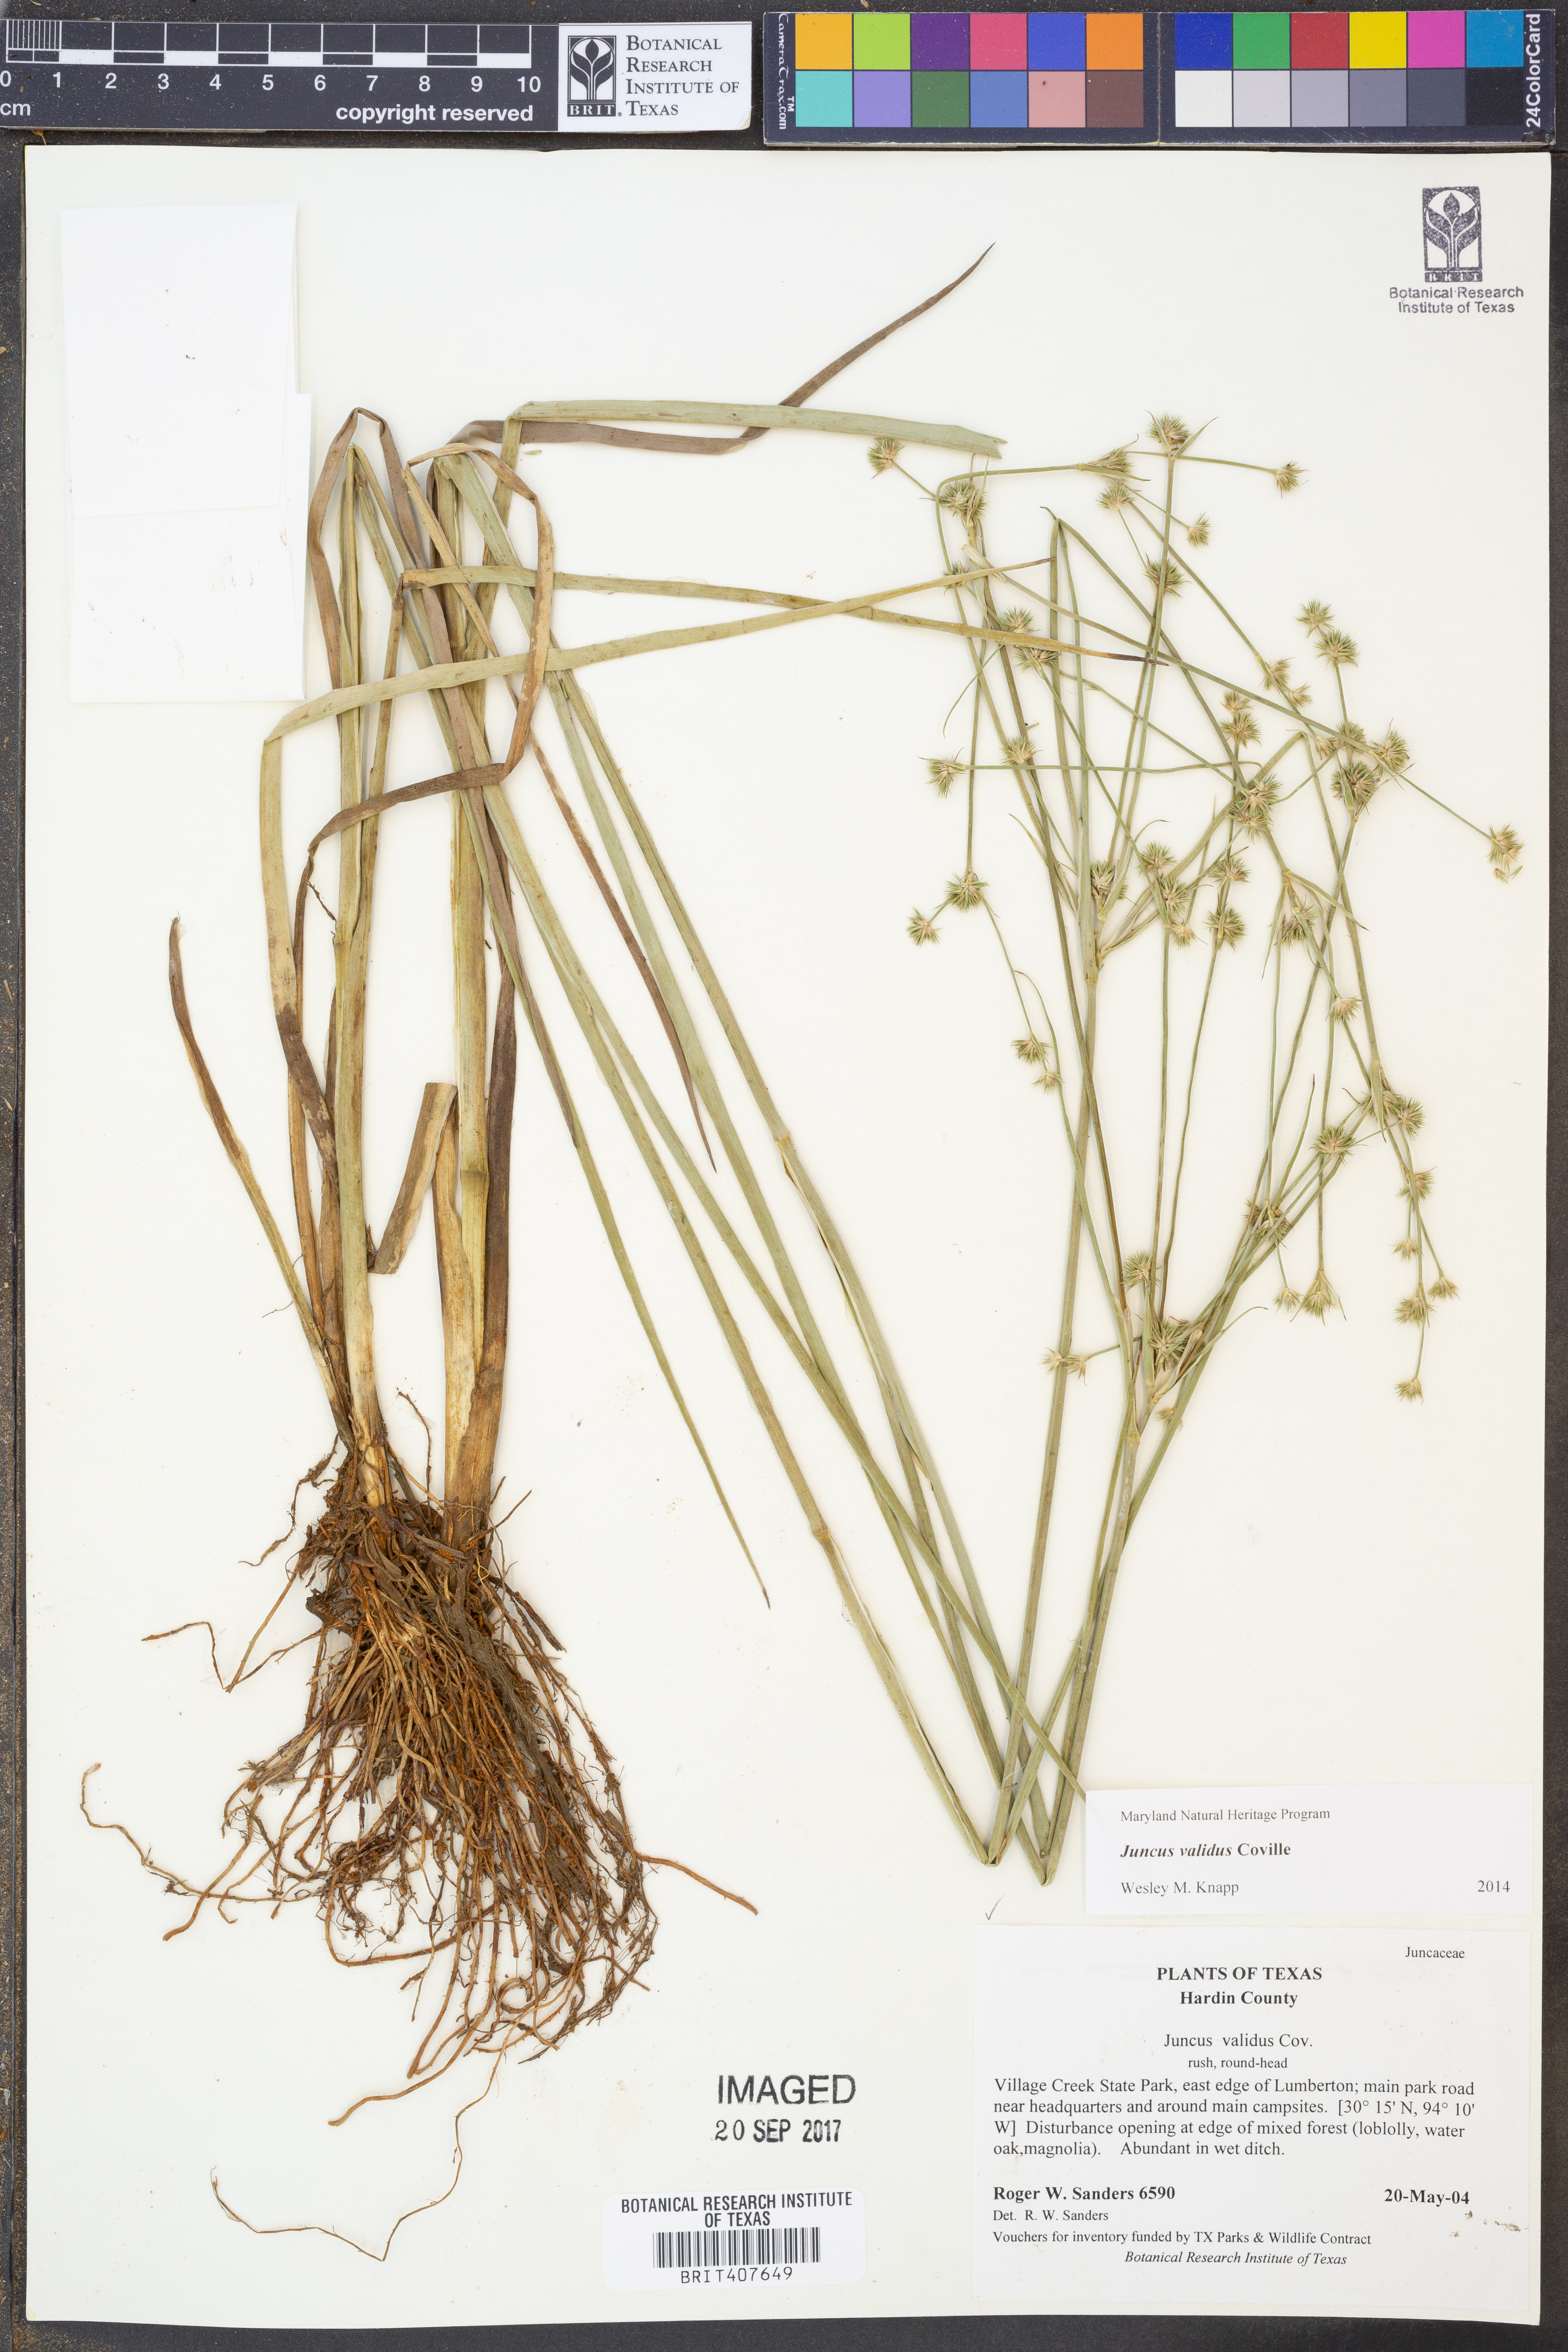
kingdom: Plantae
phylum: Tracheophyta
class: Liliopsida
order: Poales
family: Juncaceae
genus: Juncus
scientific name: Juncus validus
